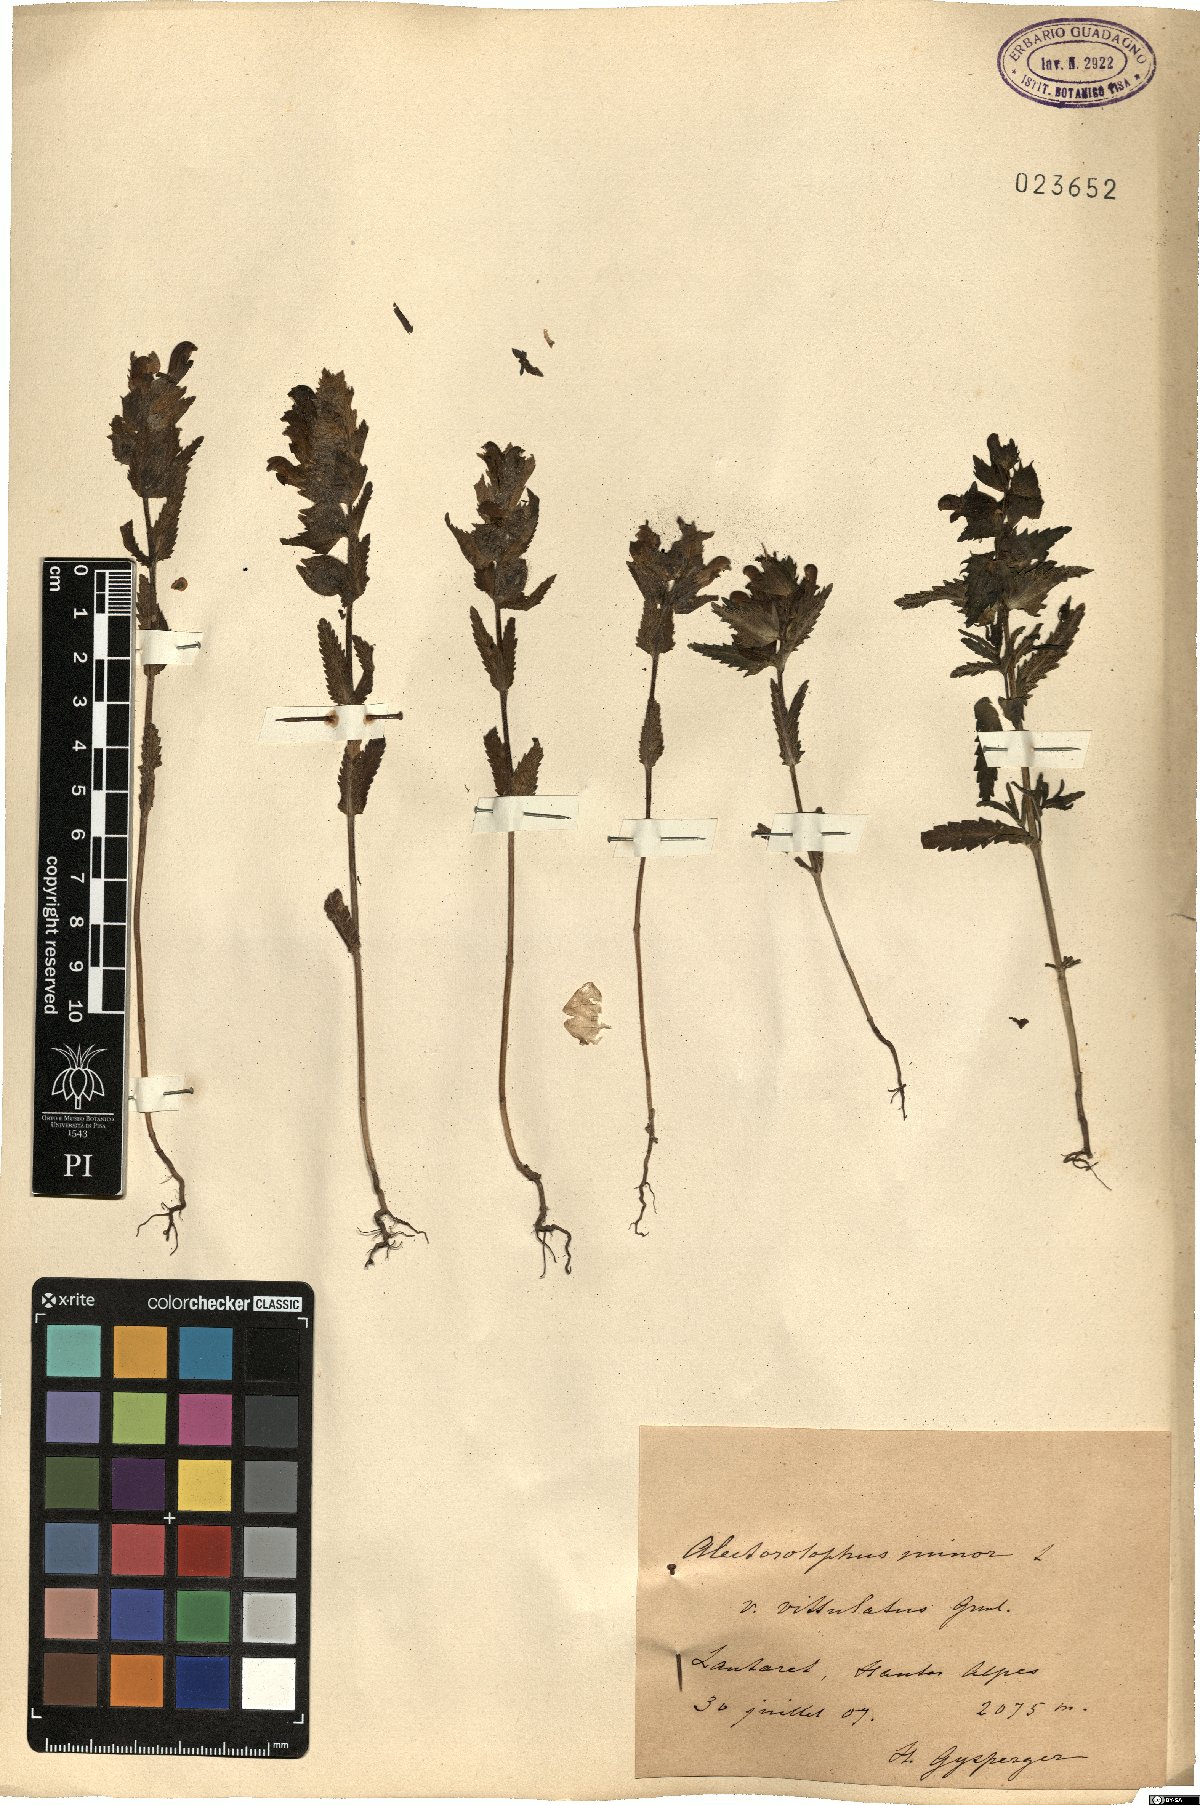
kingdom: Plantae
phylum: Tracheophyta
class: Magnoliopsida
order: Lamiales
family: Orobanchaceae
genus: Rhinanthus
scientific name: Rhinanthus minor
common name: Yellow-rattle
